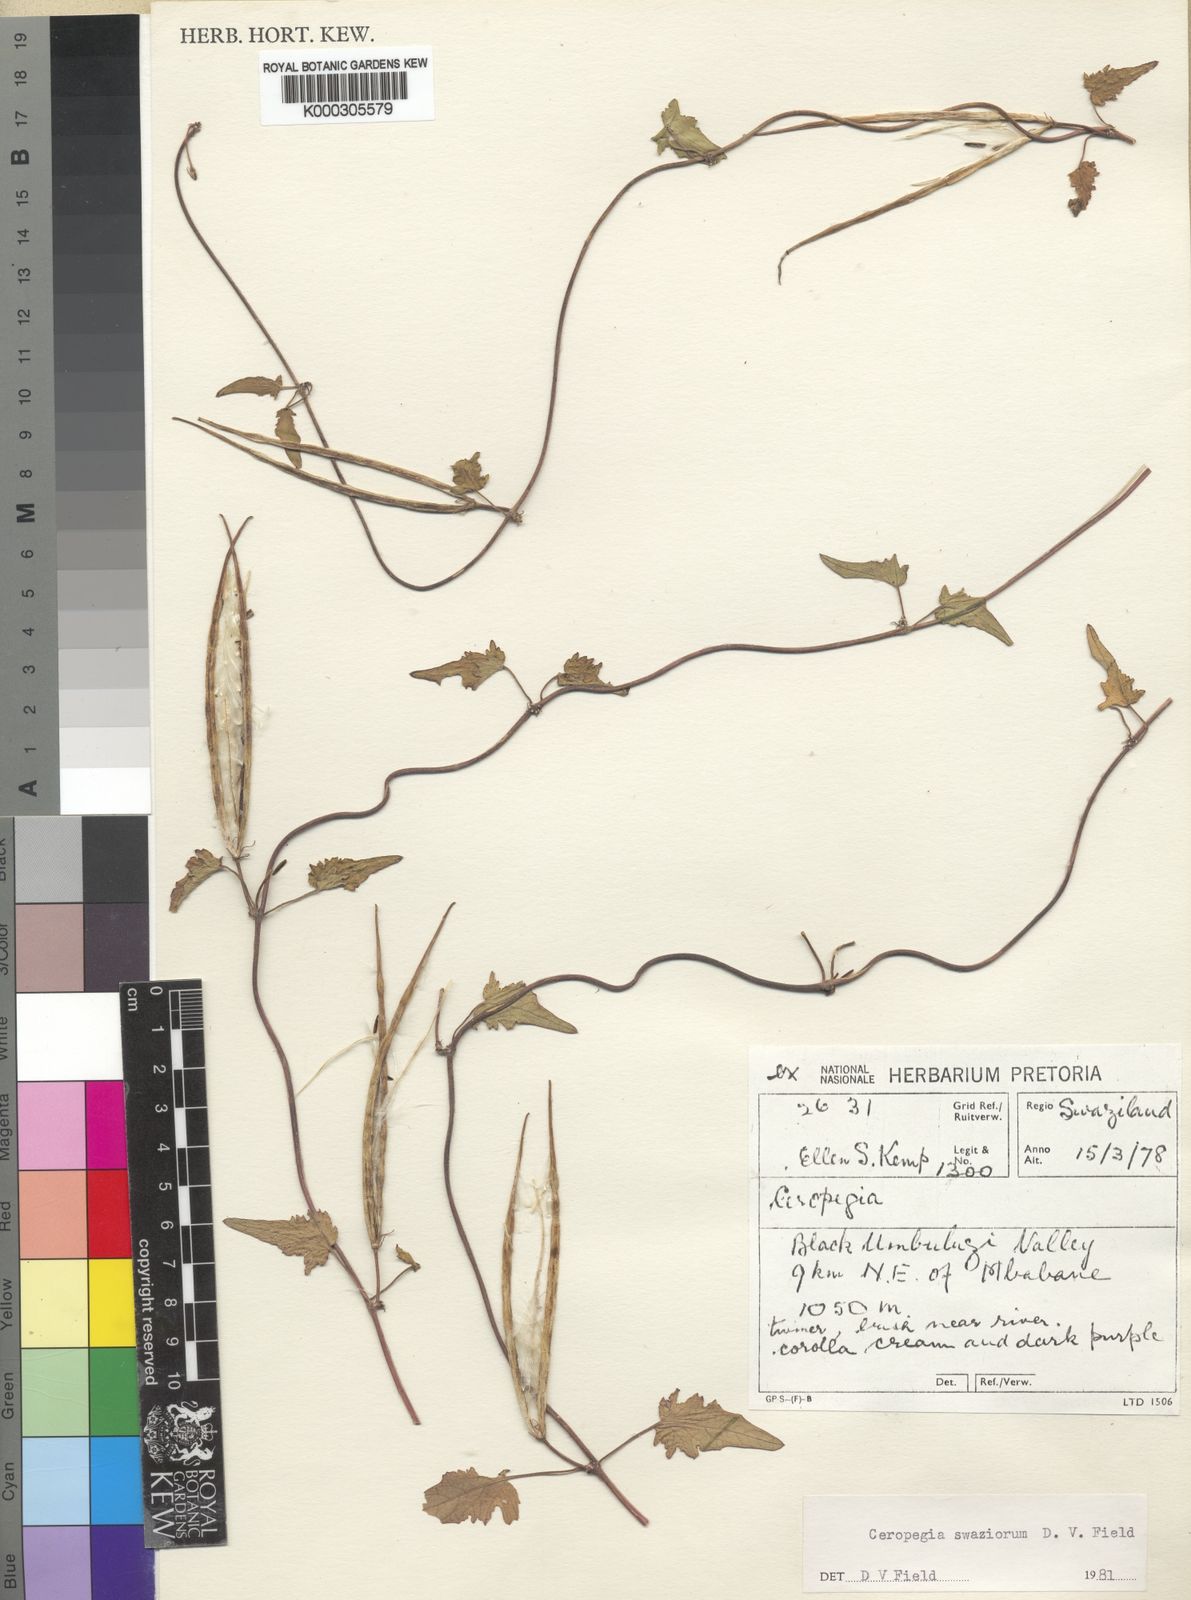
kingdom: Plantae
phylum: Tracheophyta
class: Magnoliopsida
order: Gentianales
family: Apocynaceae
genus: Ceropegia
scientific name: Ceropegia swaziorum
